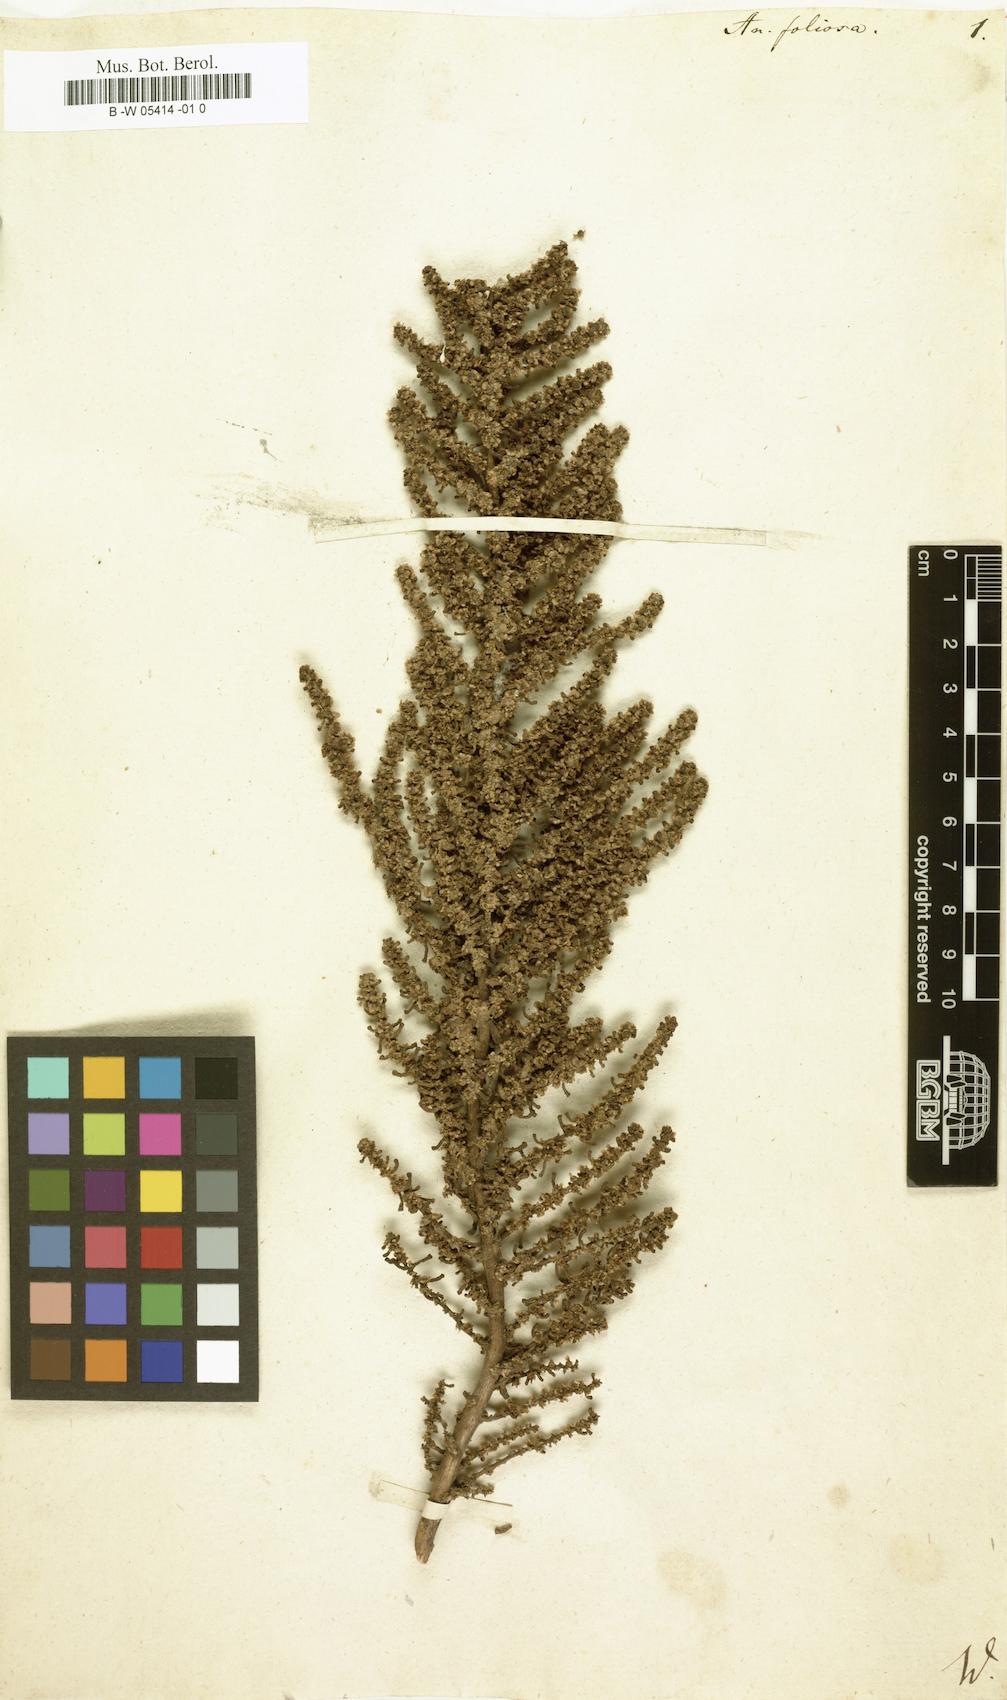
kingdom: Plantae
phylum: Tracheophyta
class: Magnoliopsida
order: Caryophyllales
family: Amaranthaceae
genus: Soda
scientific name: Soda foliosa
